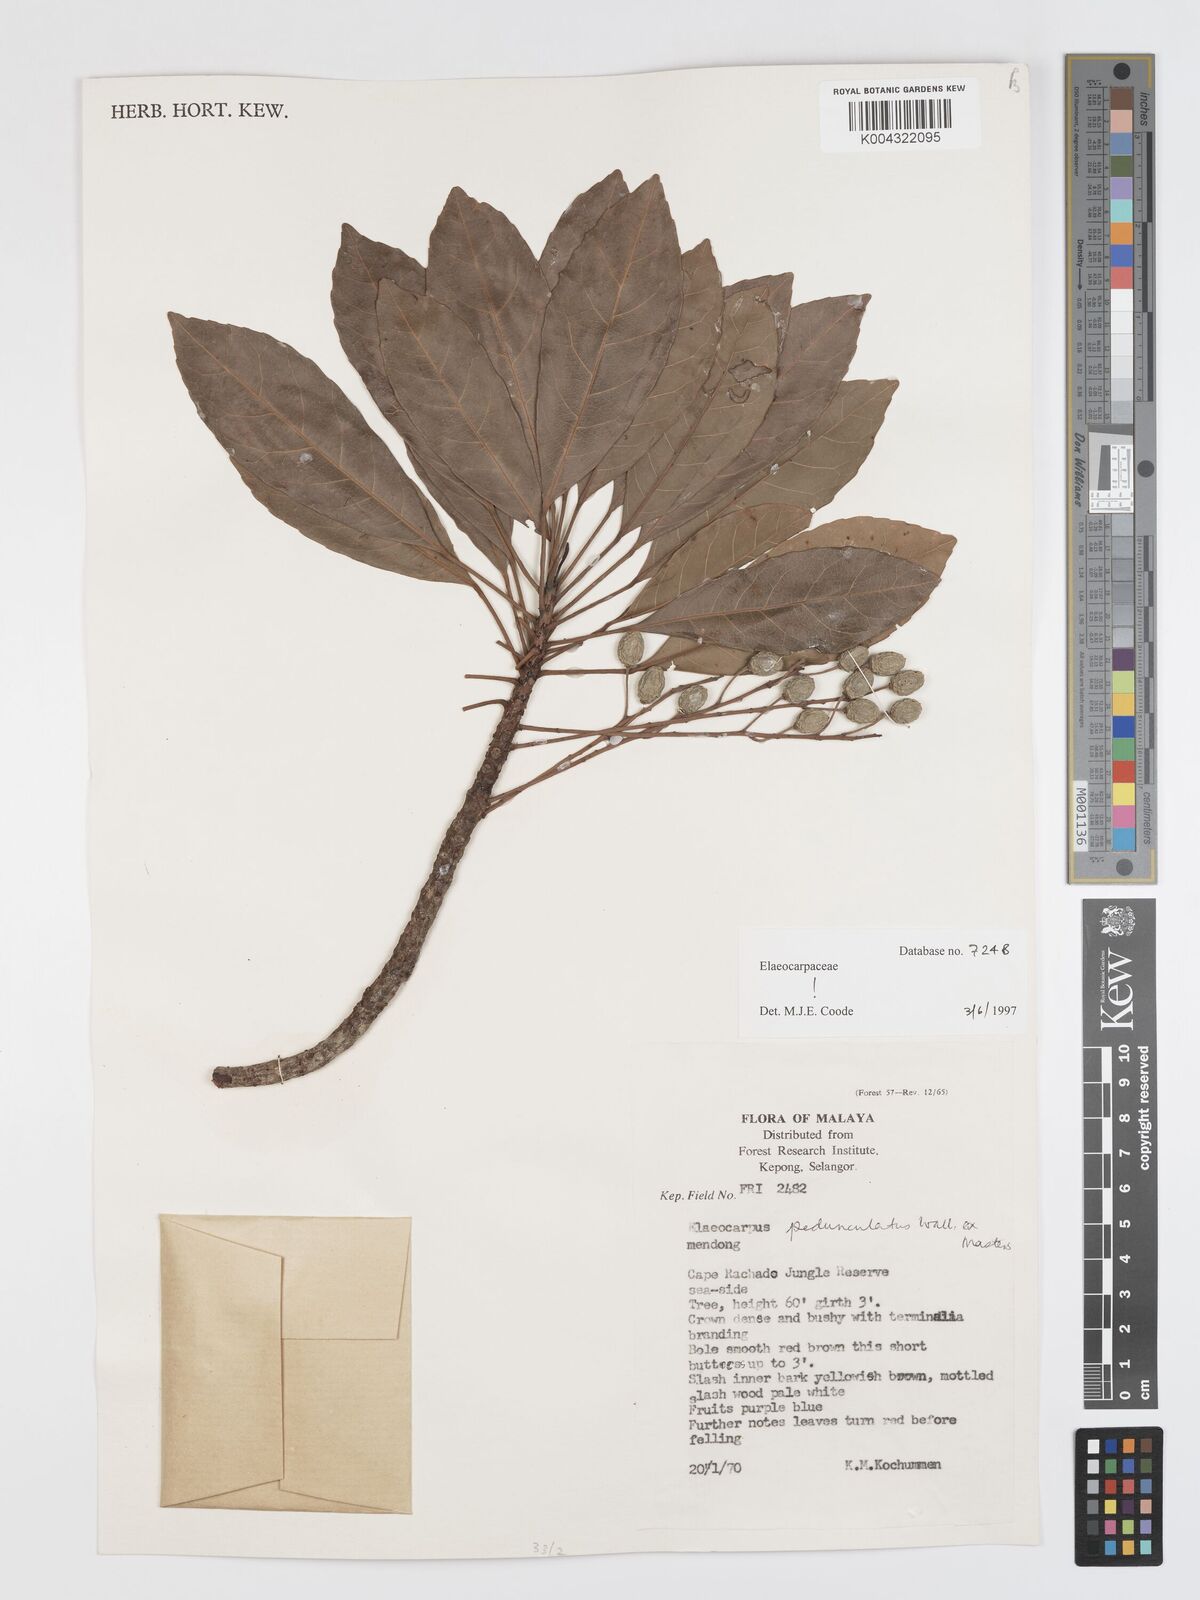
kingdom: Plantae
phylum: Tracheophyta
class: Magnoliopsida
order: Oxalidales
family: Elaeocarpaceae
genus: Elaeocarpus
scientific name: Elaeocarpus pedunculatus
